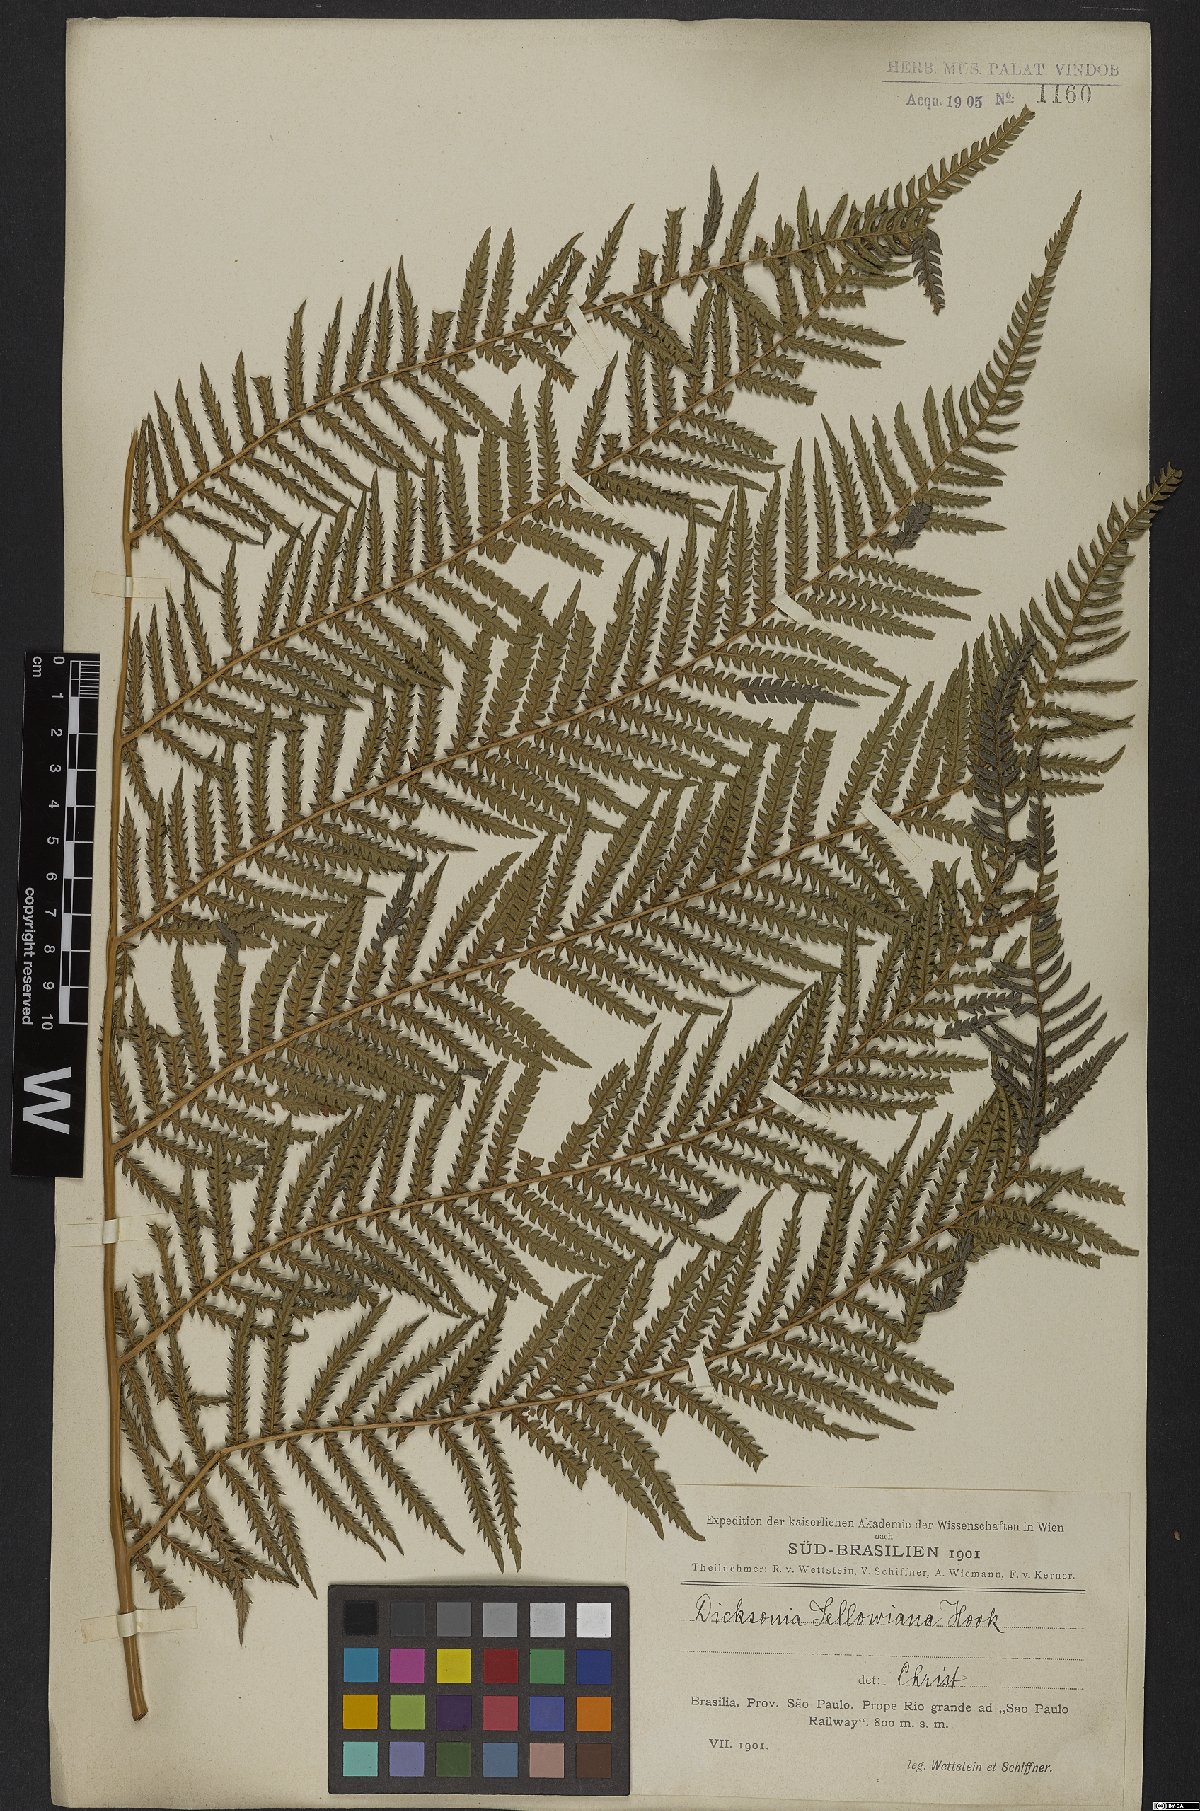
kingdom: Plantae
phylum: Tracheophyta
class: Polypodiopsida
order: Cyatheales
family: Dicksoniaceae
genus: Dicksonia
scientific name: Dicksonia sellowiana
